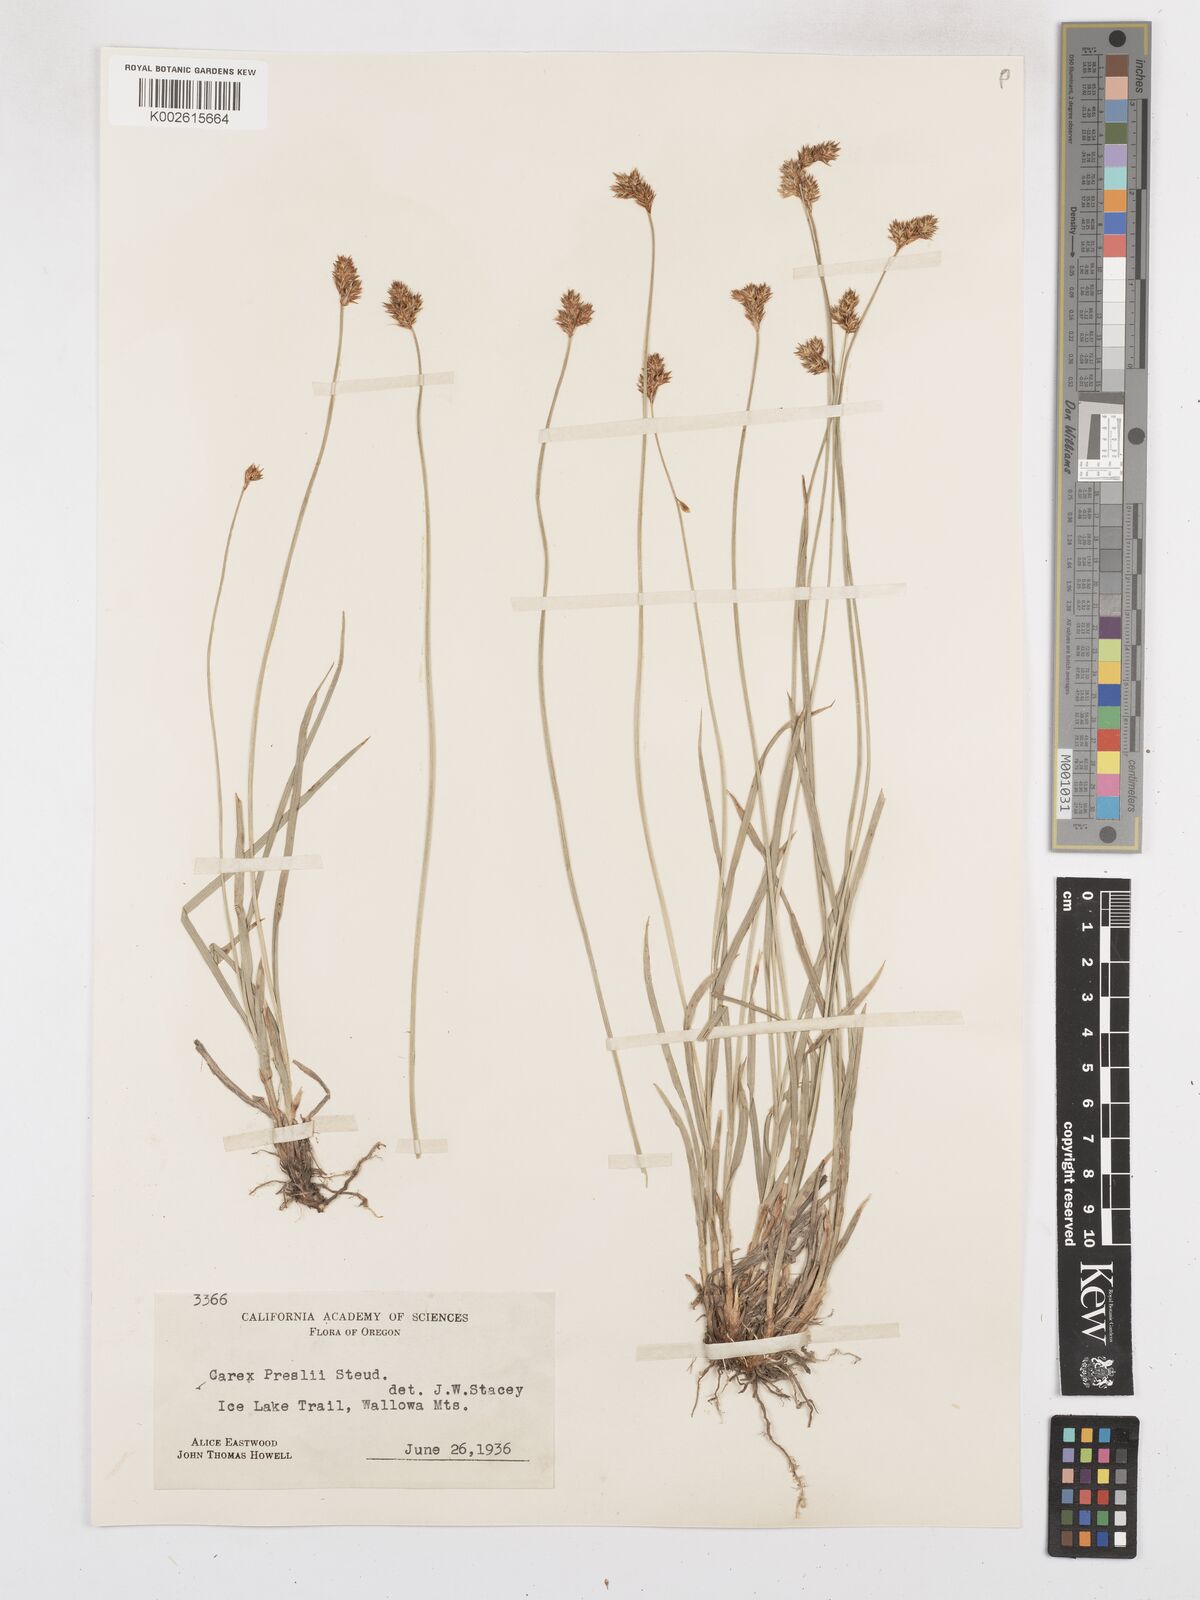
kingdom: Plantae
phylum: Tracheophyta
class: Liliopsida
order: Poales
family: Cyperaceae
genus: Carex
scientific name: Carex preslii
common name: Presl's sedge
